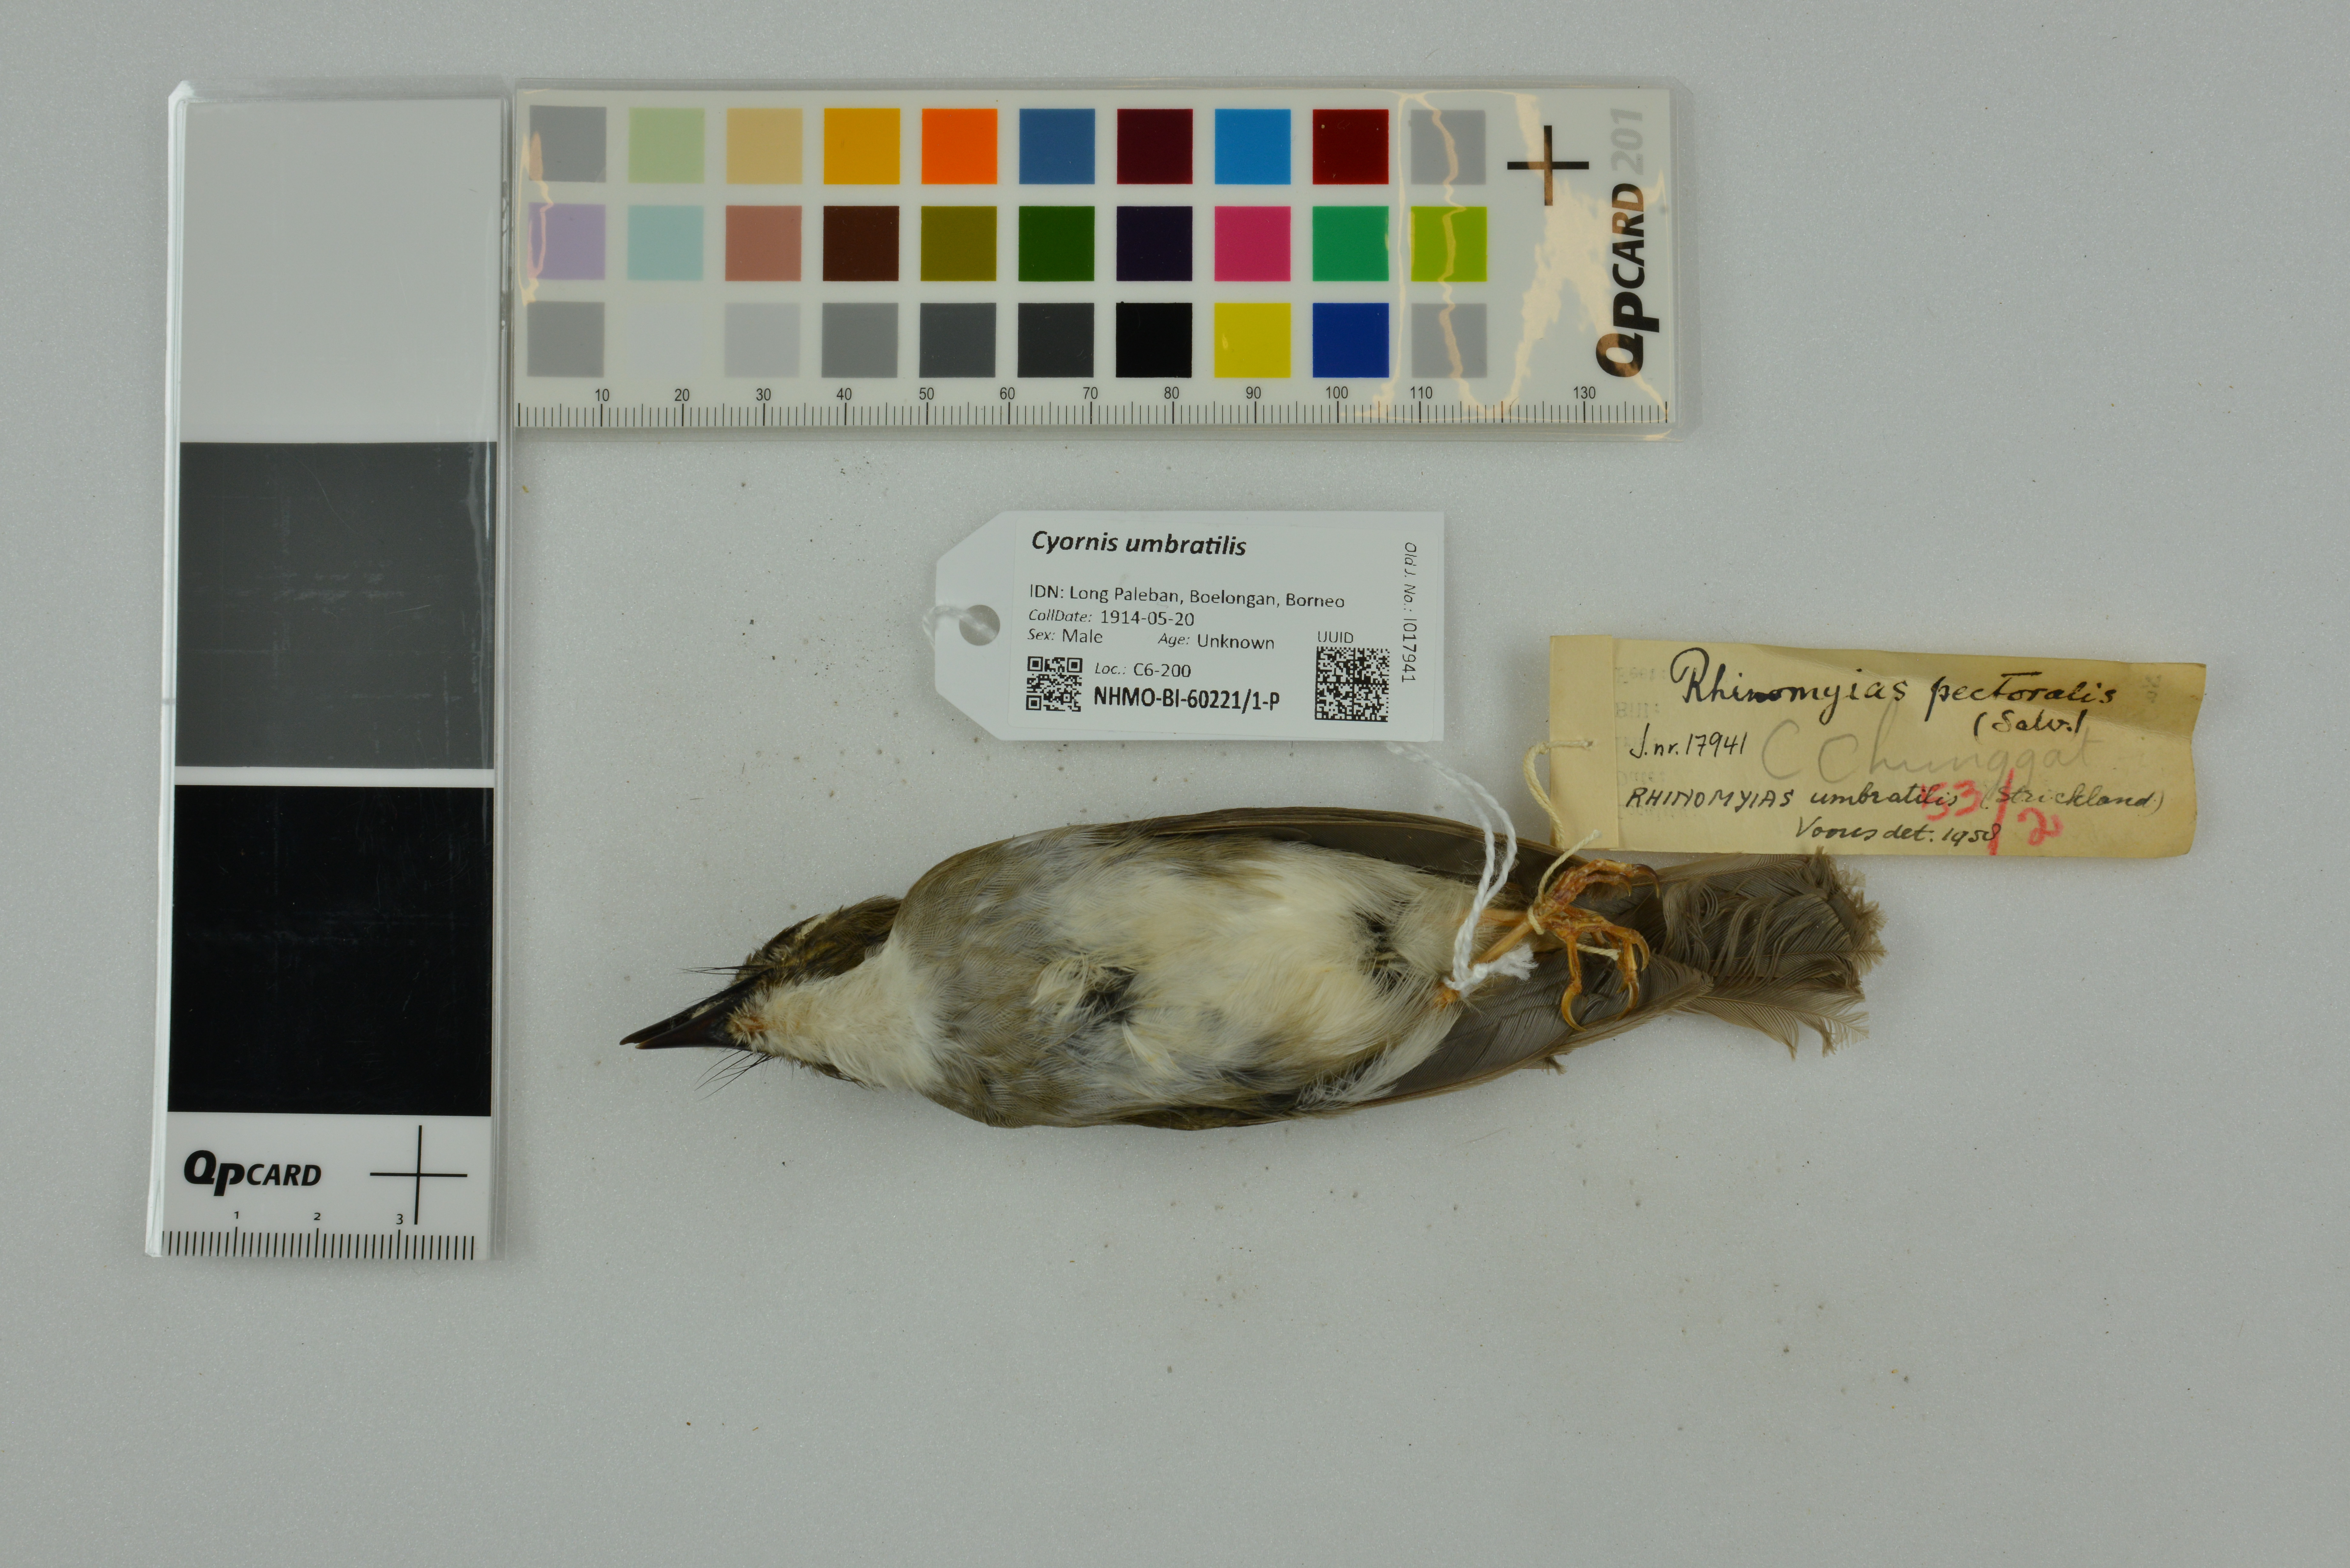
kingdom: Animalia
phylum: Chordata
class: Aves
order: Passeriformes
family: Muscicapidae
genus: Rhinomyias
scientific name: Rhinomyias umbratilis
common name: Grey-chested jungle flycatcher
